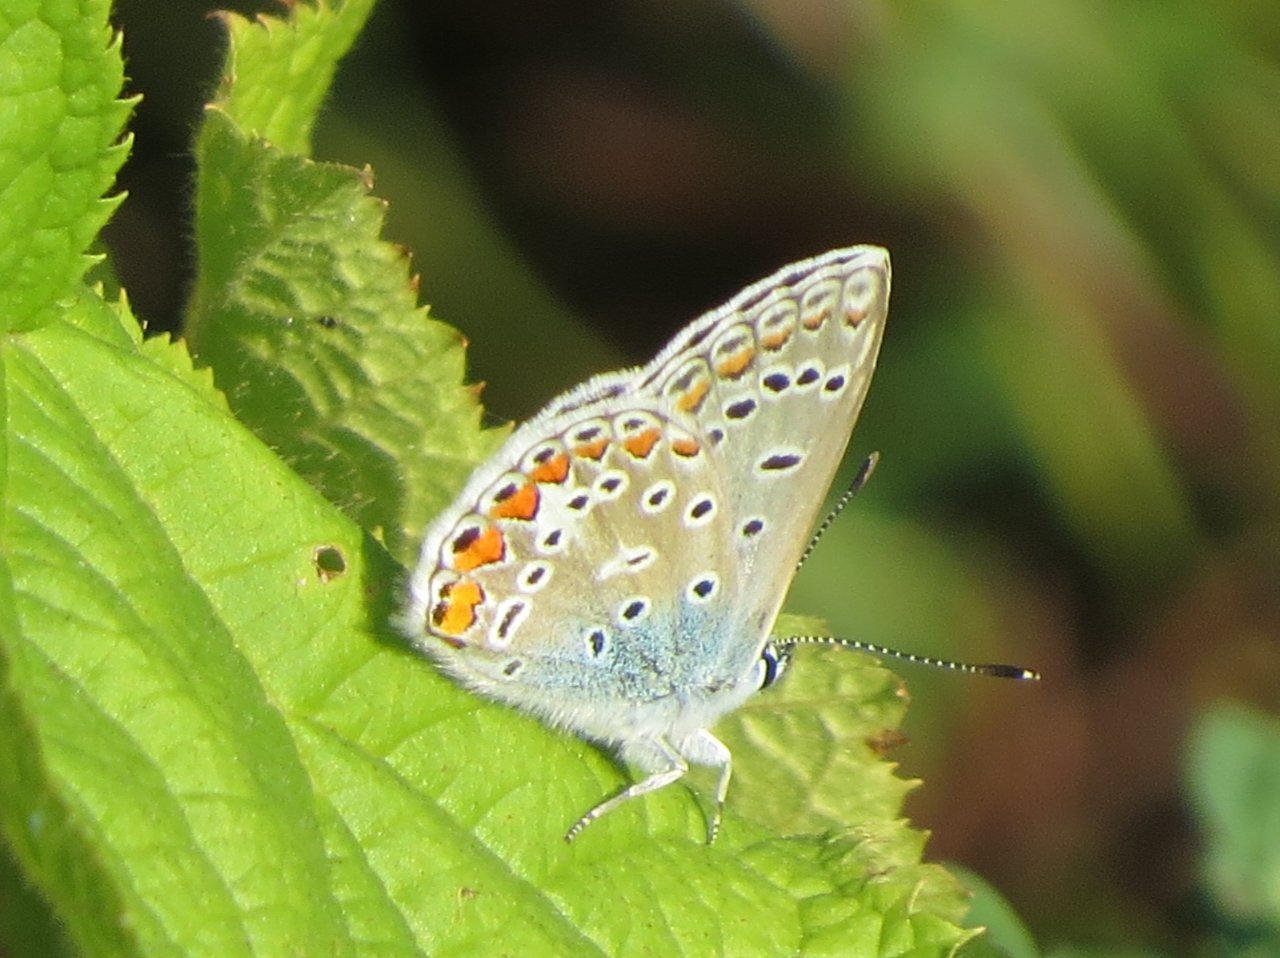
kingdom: Animalia
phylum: Arthropoda
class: Insecta
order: Lepidoptera
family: Lycaenidae
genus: Polyommatus
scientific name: Polyommatus icarus
